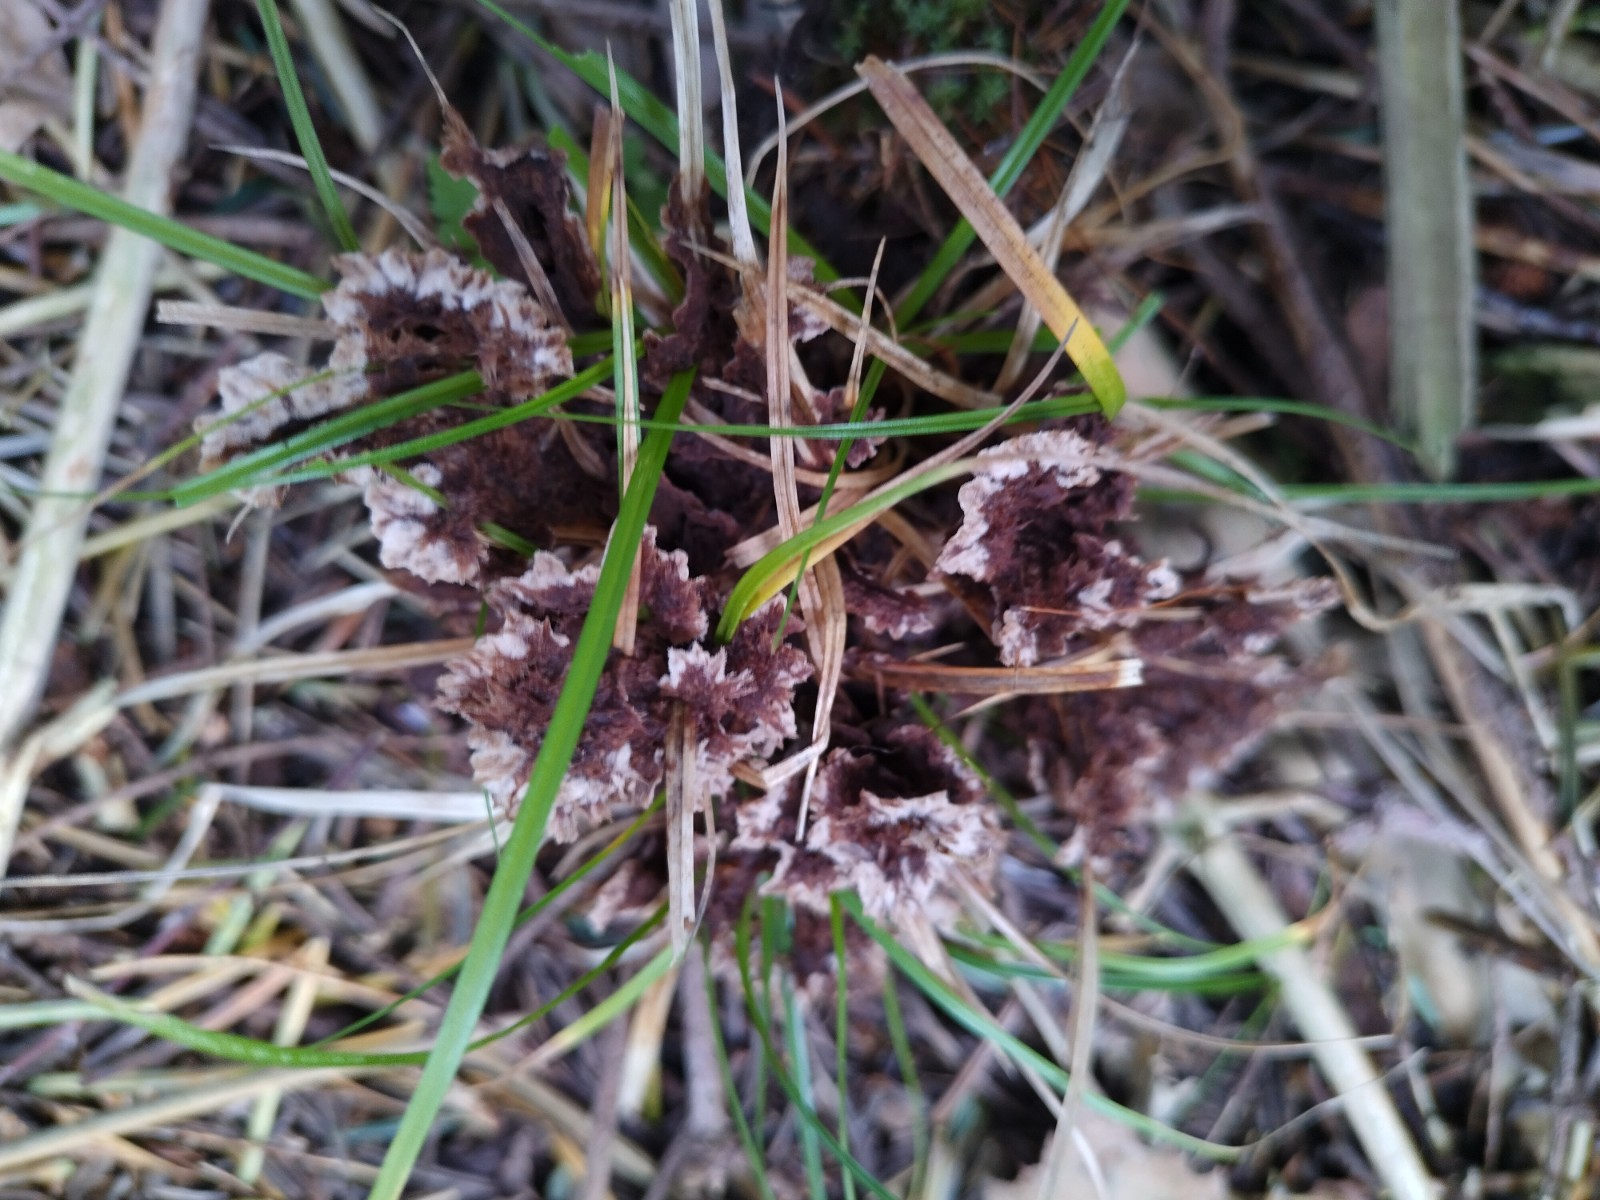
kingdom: Fungi
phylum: Basidiomycota
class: Agaricomycetes
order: Thelephorales
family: Thelephoraceae
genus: Thelephora
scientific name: Thelephora terrestris
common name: fliget frynsesvamp
